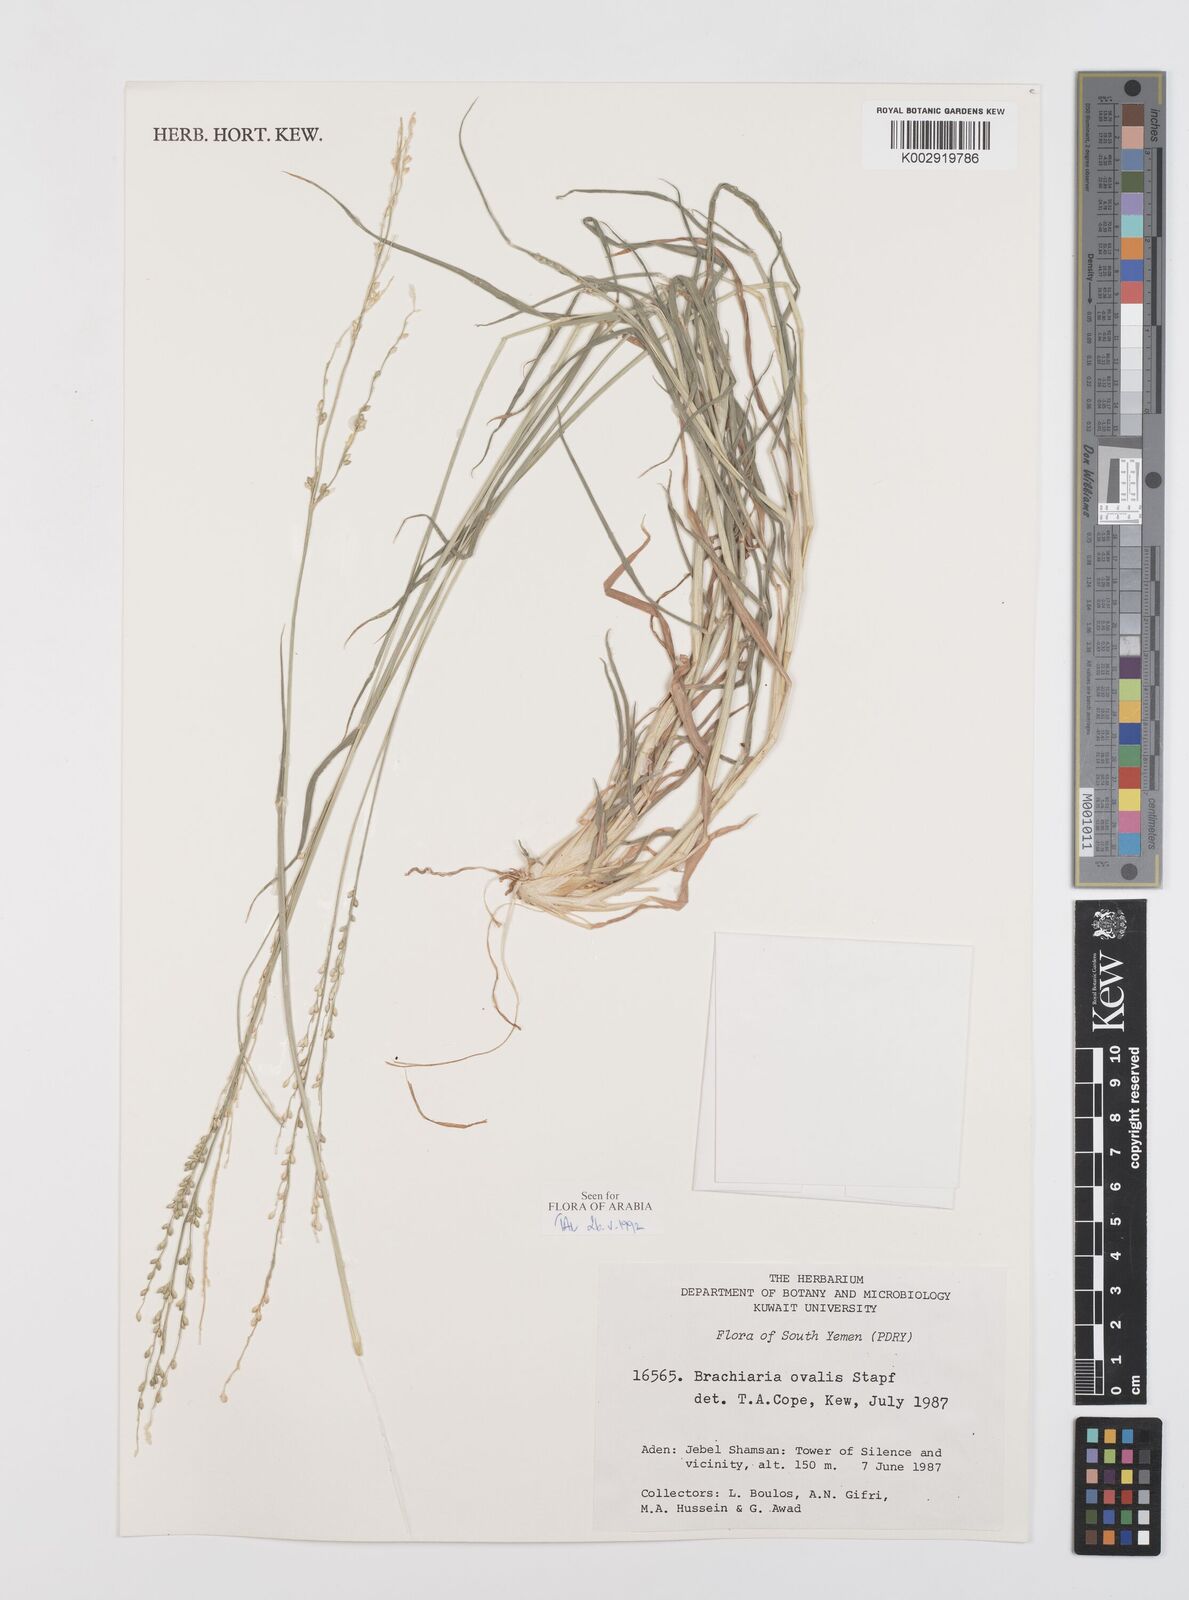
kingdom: Plantae
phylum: Tracheophyta
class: Liliopsida
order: Poales
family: Poaceae
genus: Urochloa
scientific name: Urochloa ovalis
